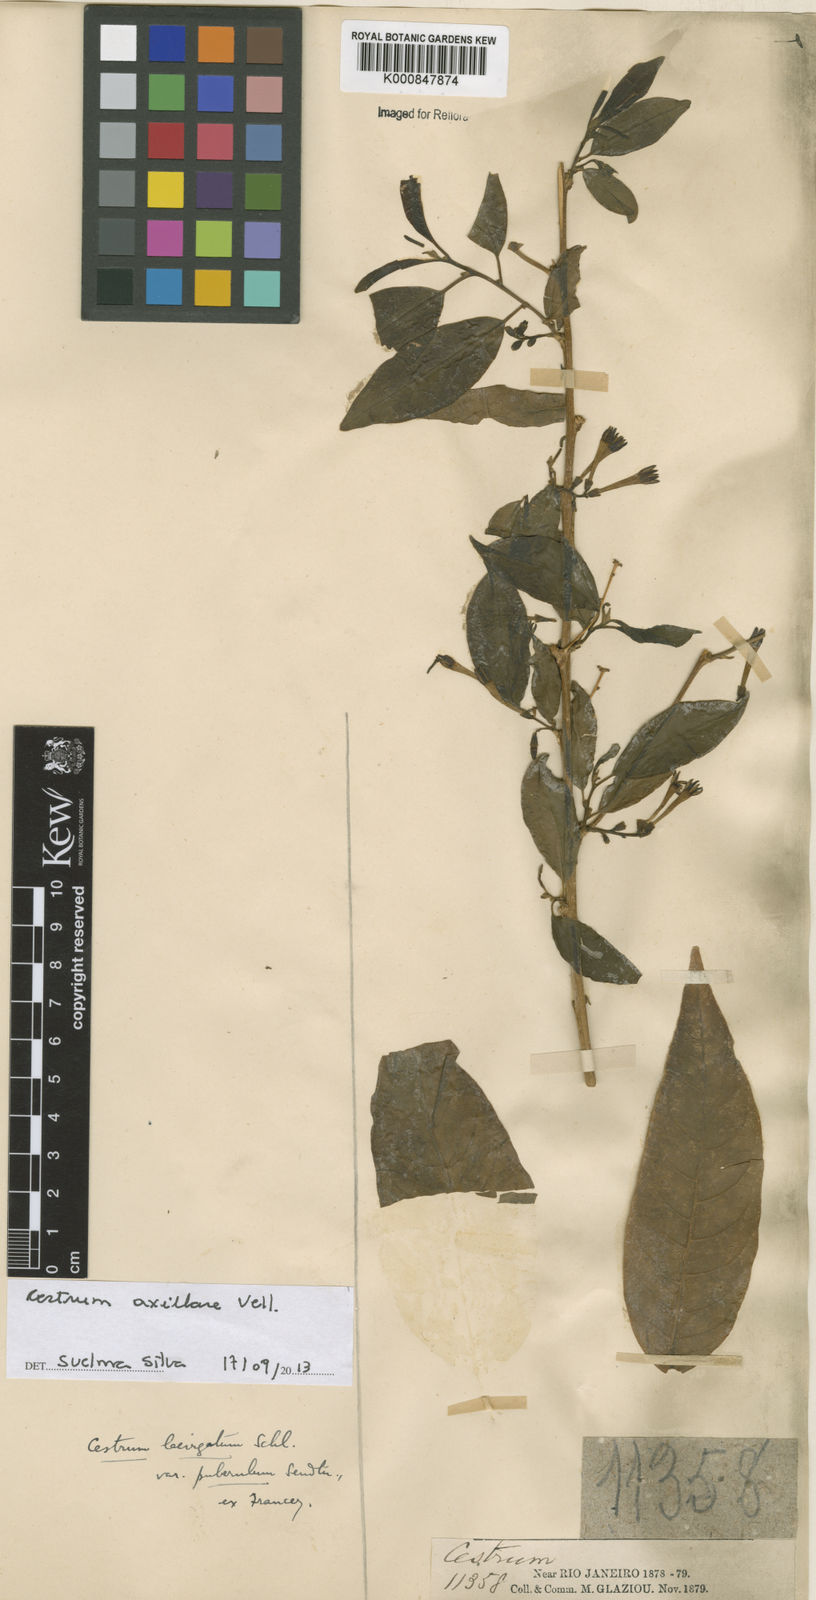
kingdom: Plantae
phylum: Tracheophyta
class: Magnoliopsida
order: Solanales
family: Solanaceae
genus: Cestrum
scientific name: Cestrum laevigatum
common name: Inkberry
